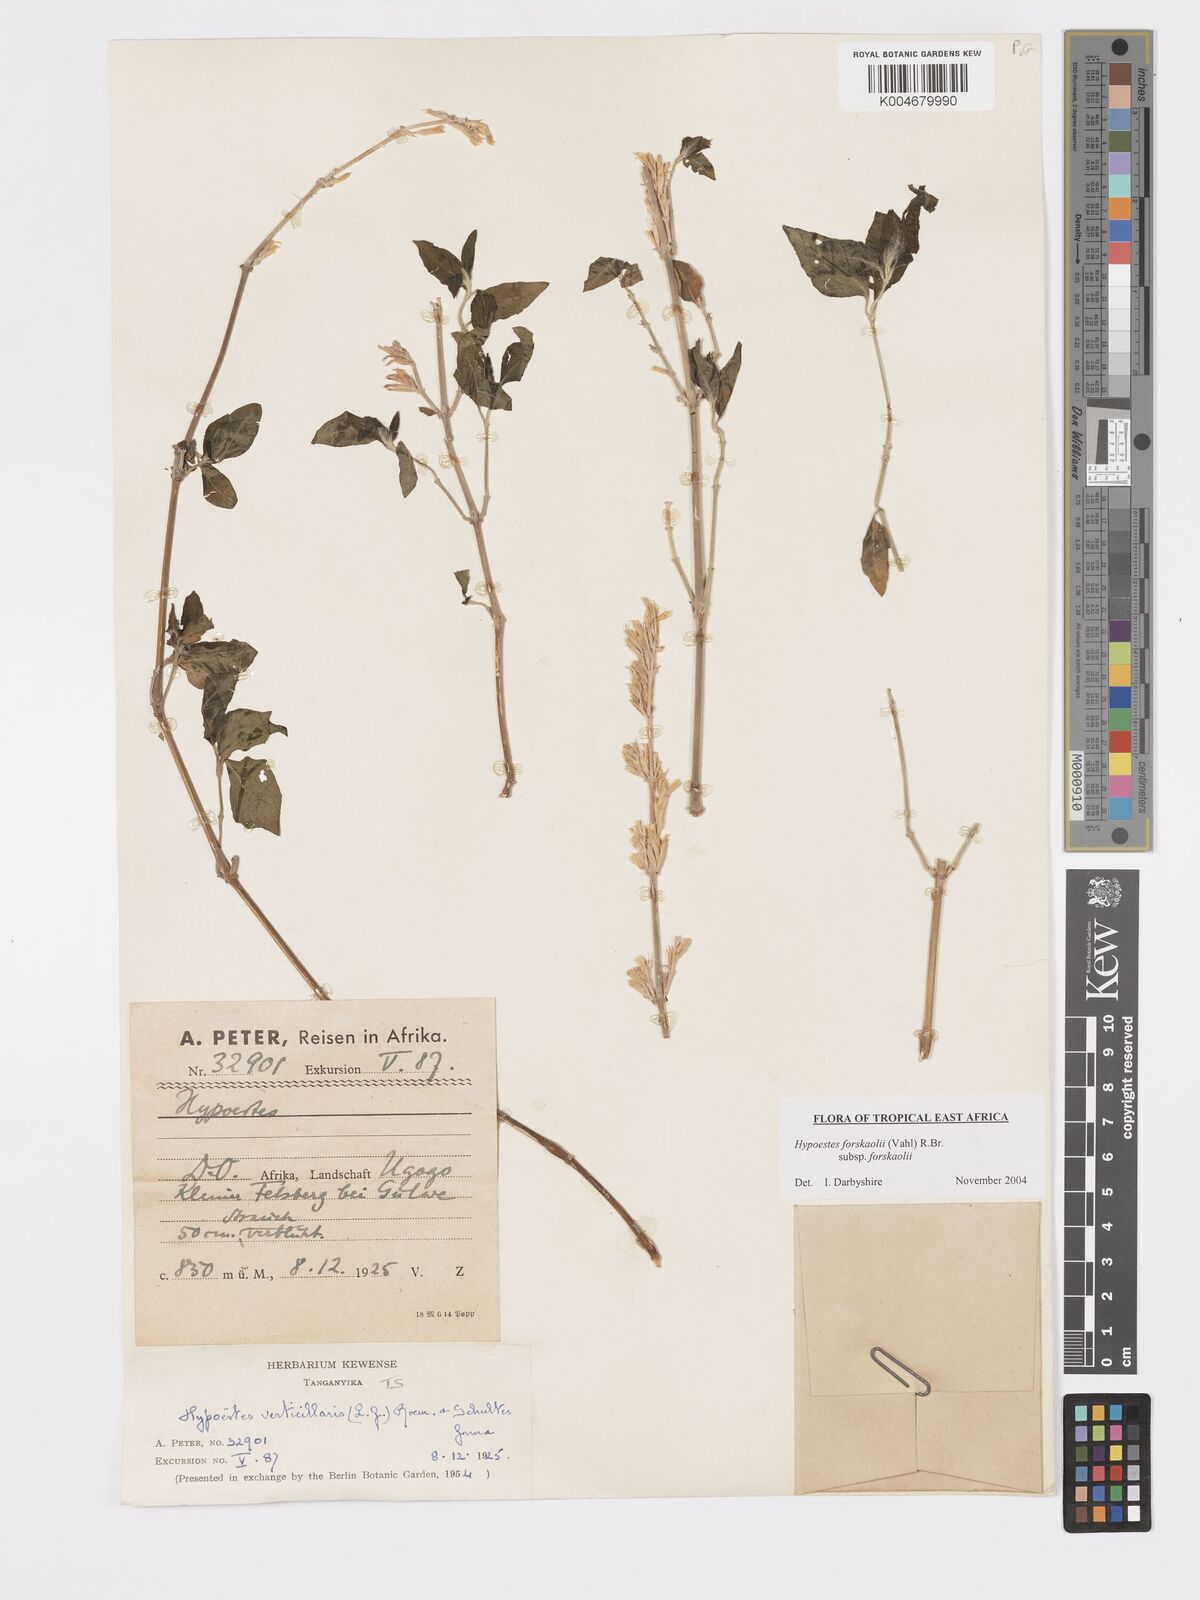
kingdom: Plantae
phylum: Tracheophyta
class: Magnoliopsida
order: Lamiales
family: Acanthaceae
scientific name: Acanthaceae
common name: Acanthaceae
